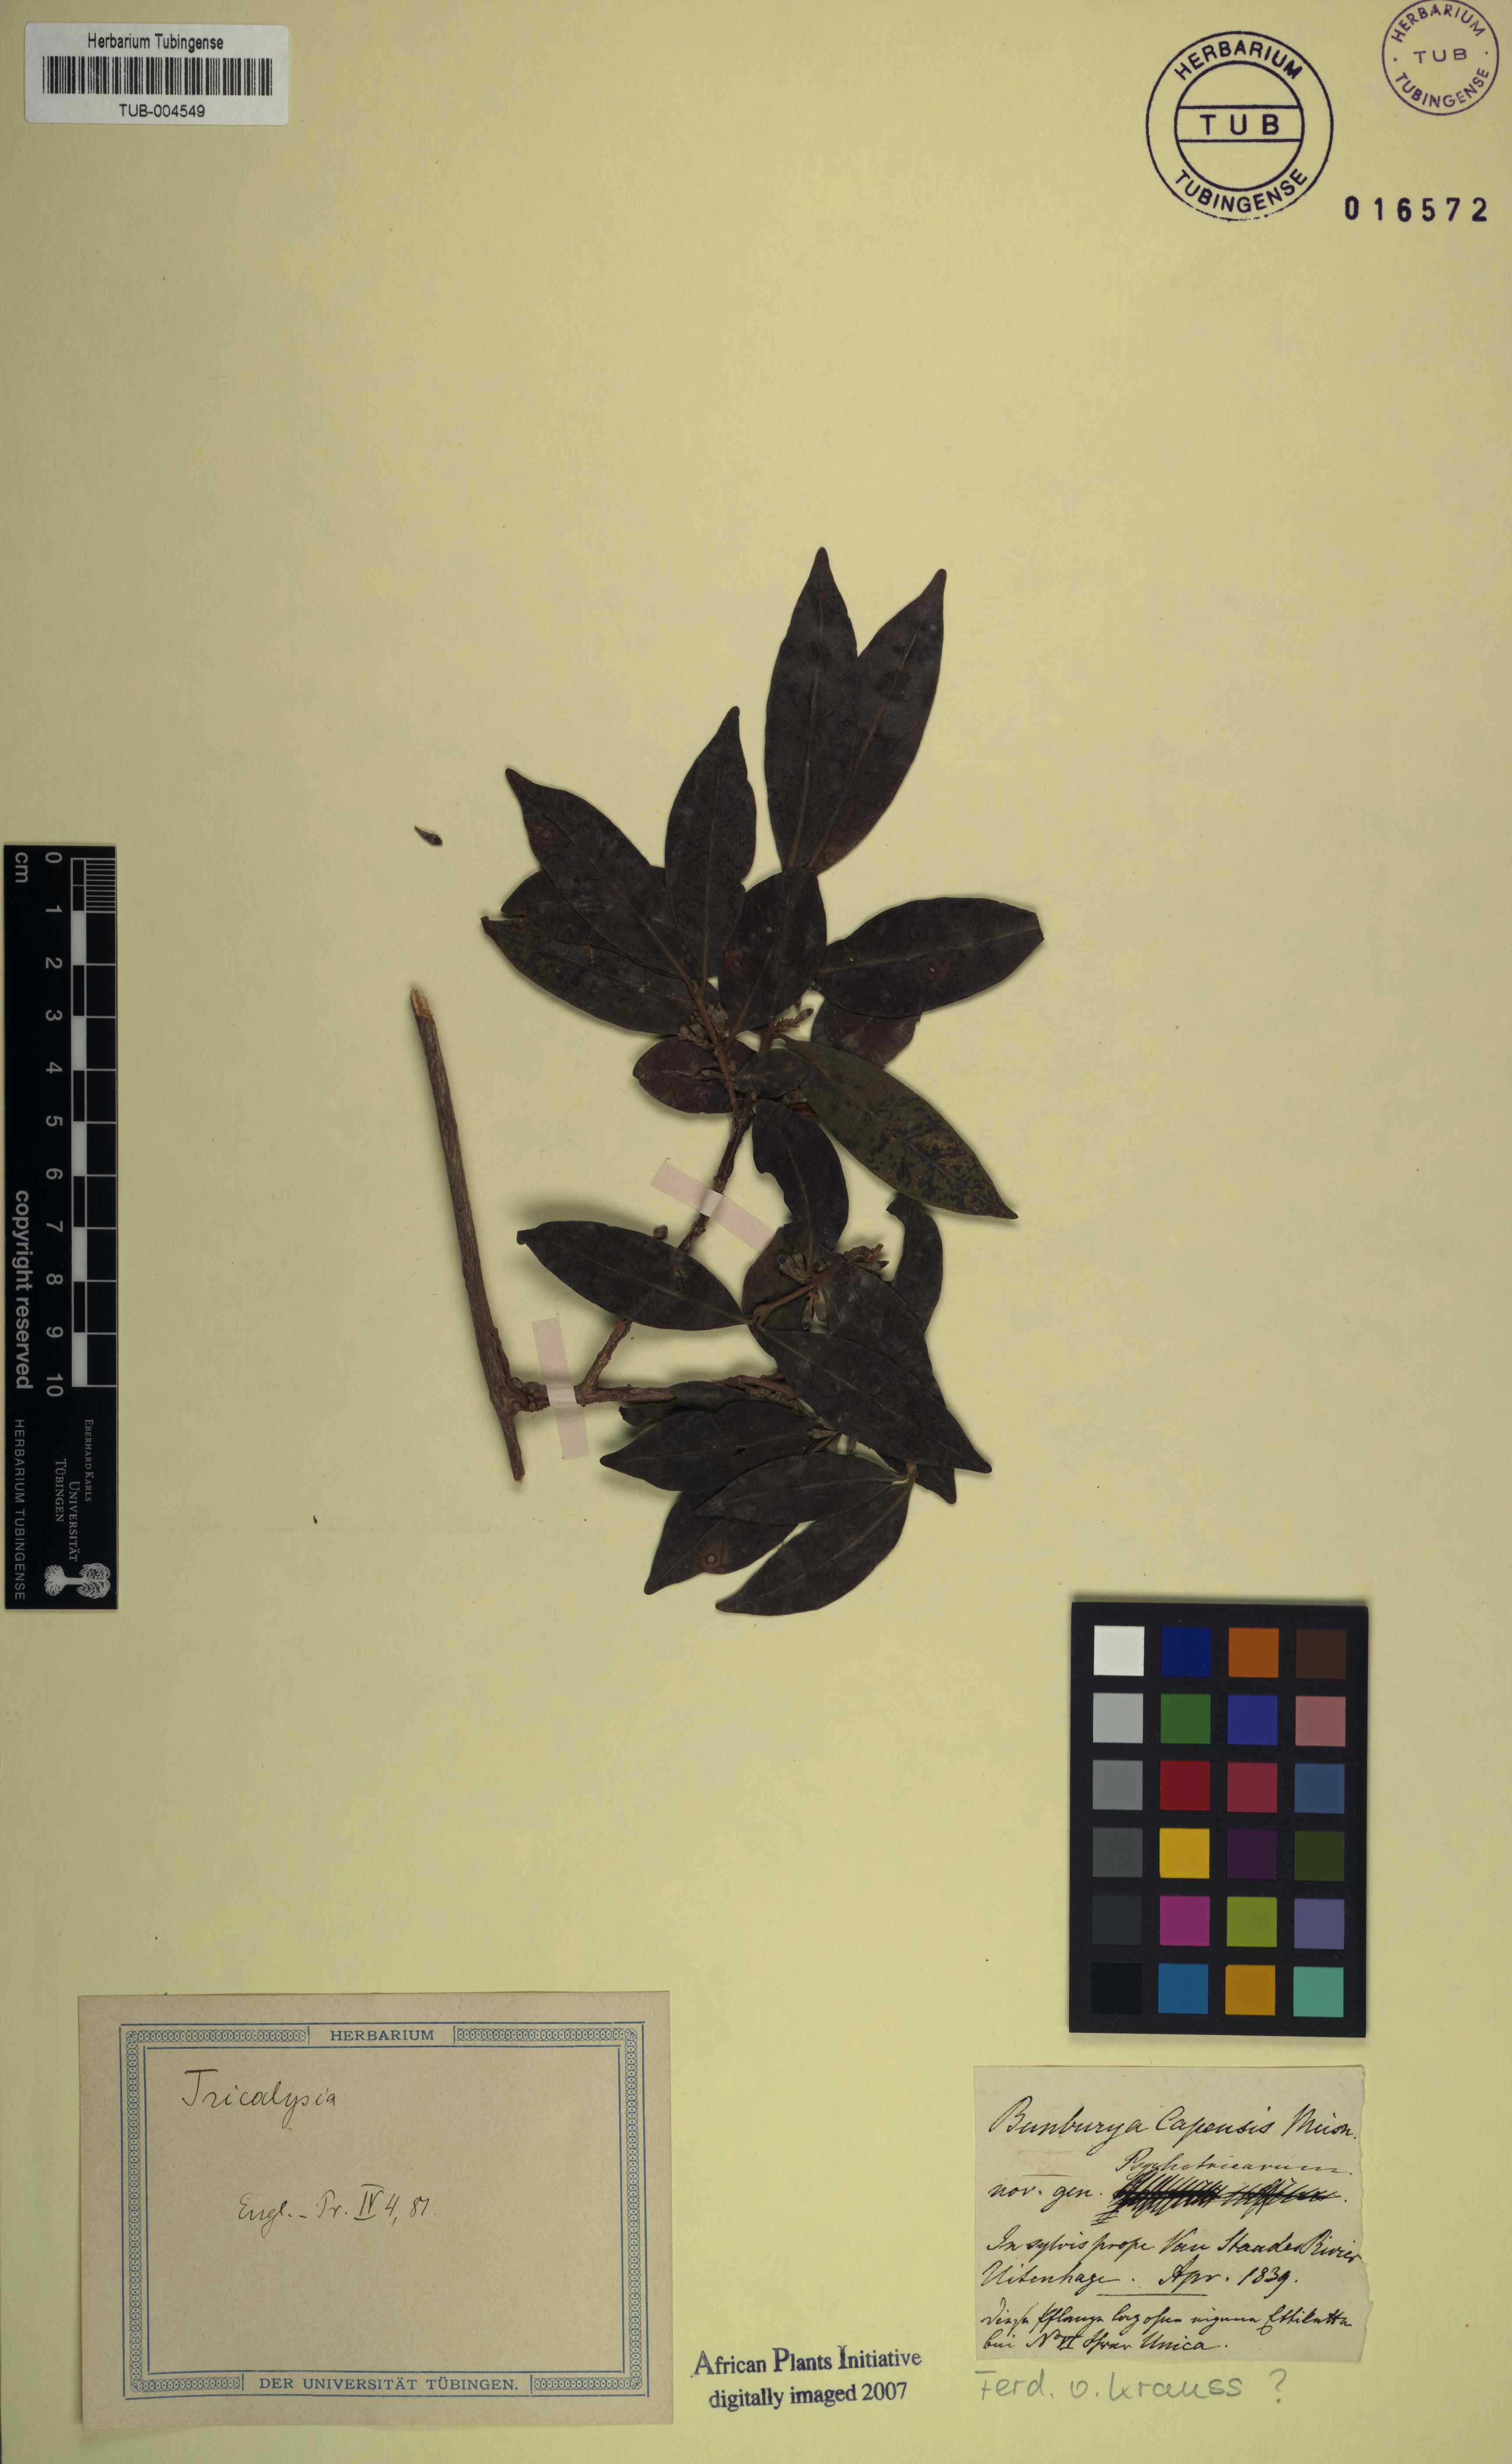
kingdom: Plantae
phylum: Tracheophyta
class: Magnoliopsida
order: Gentianales
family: Rubiaceae
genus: Tricalysia
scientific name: Tricalysia capensis
